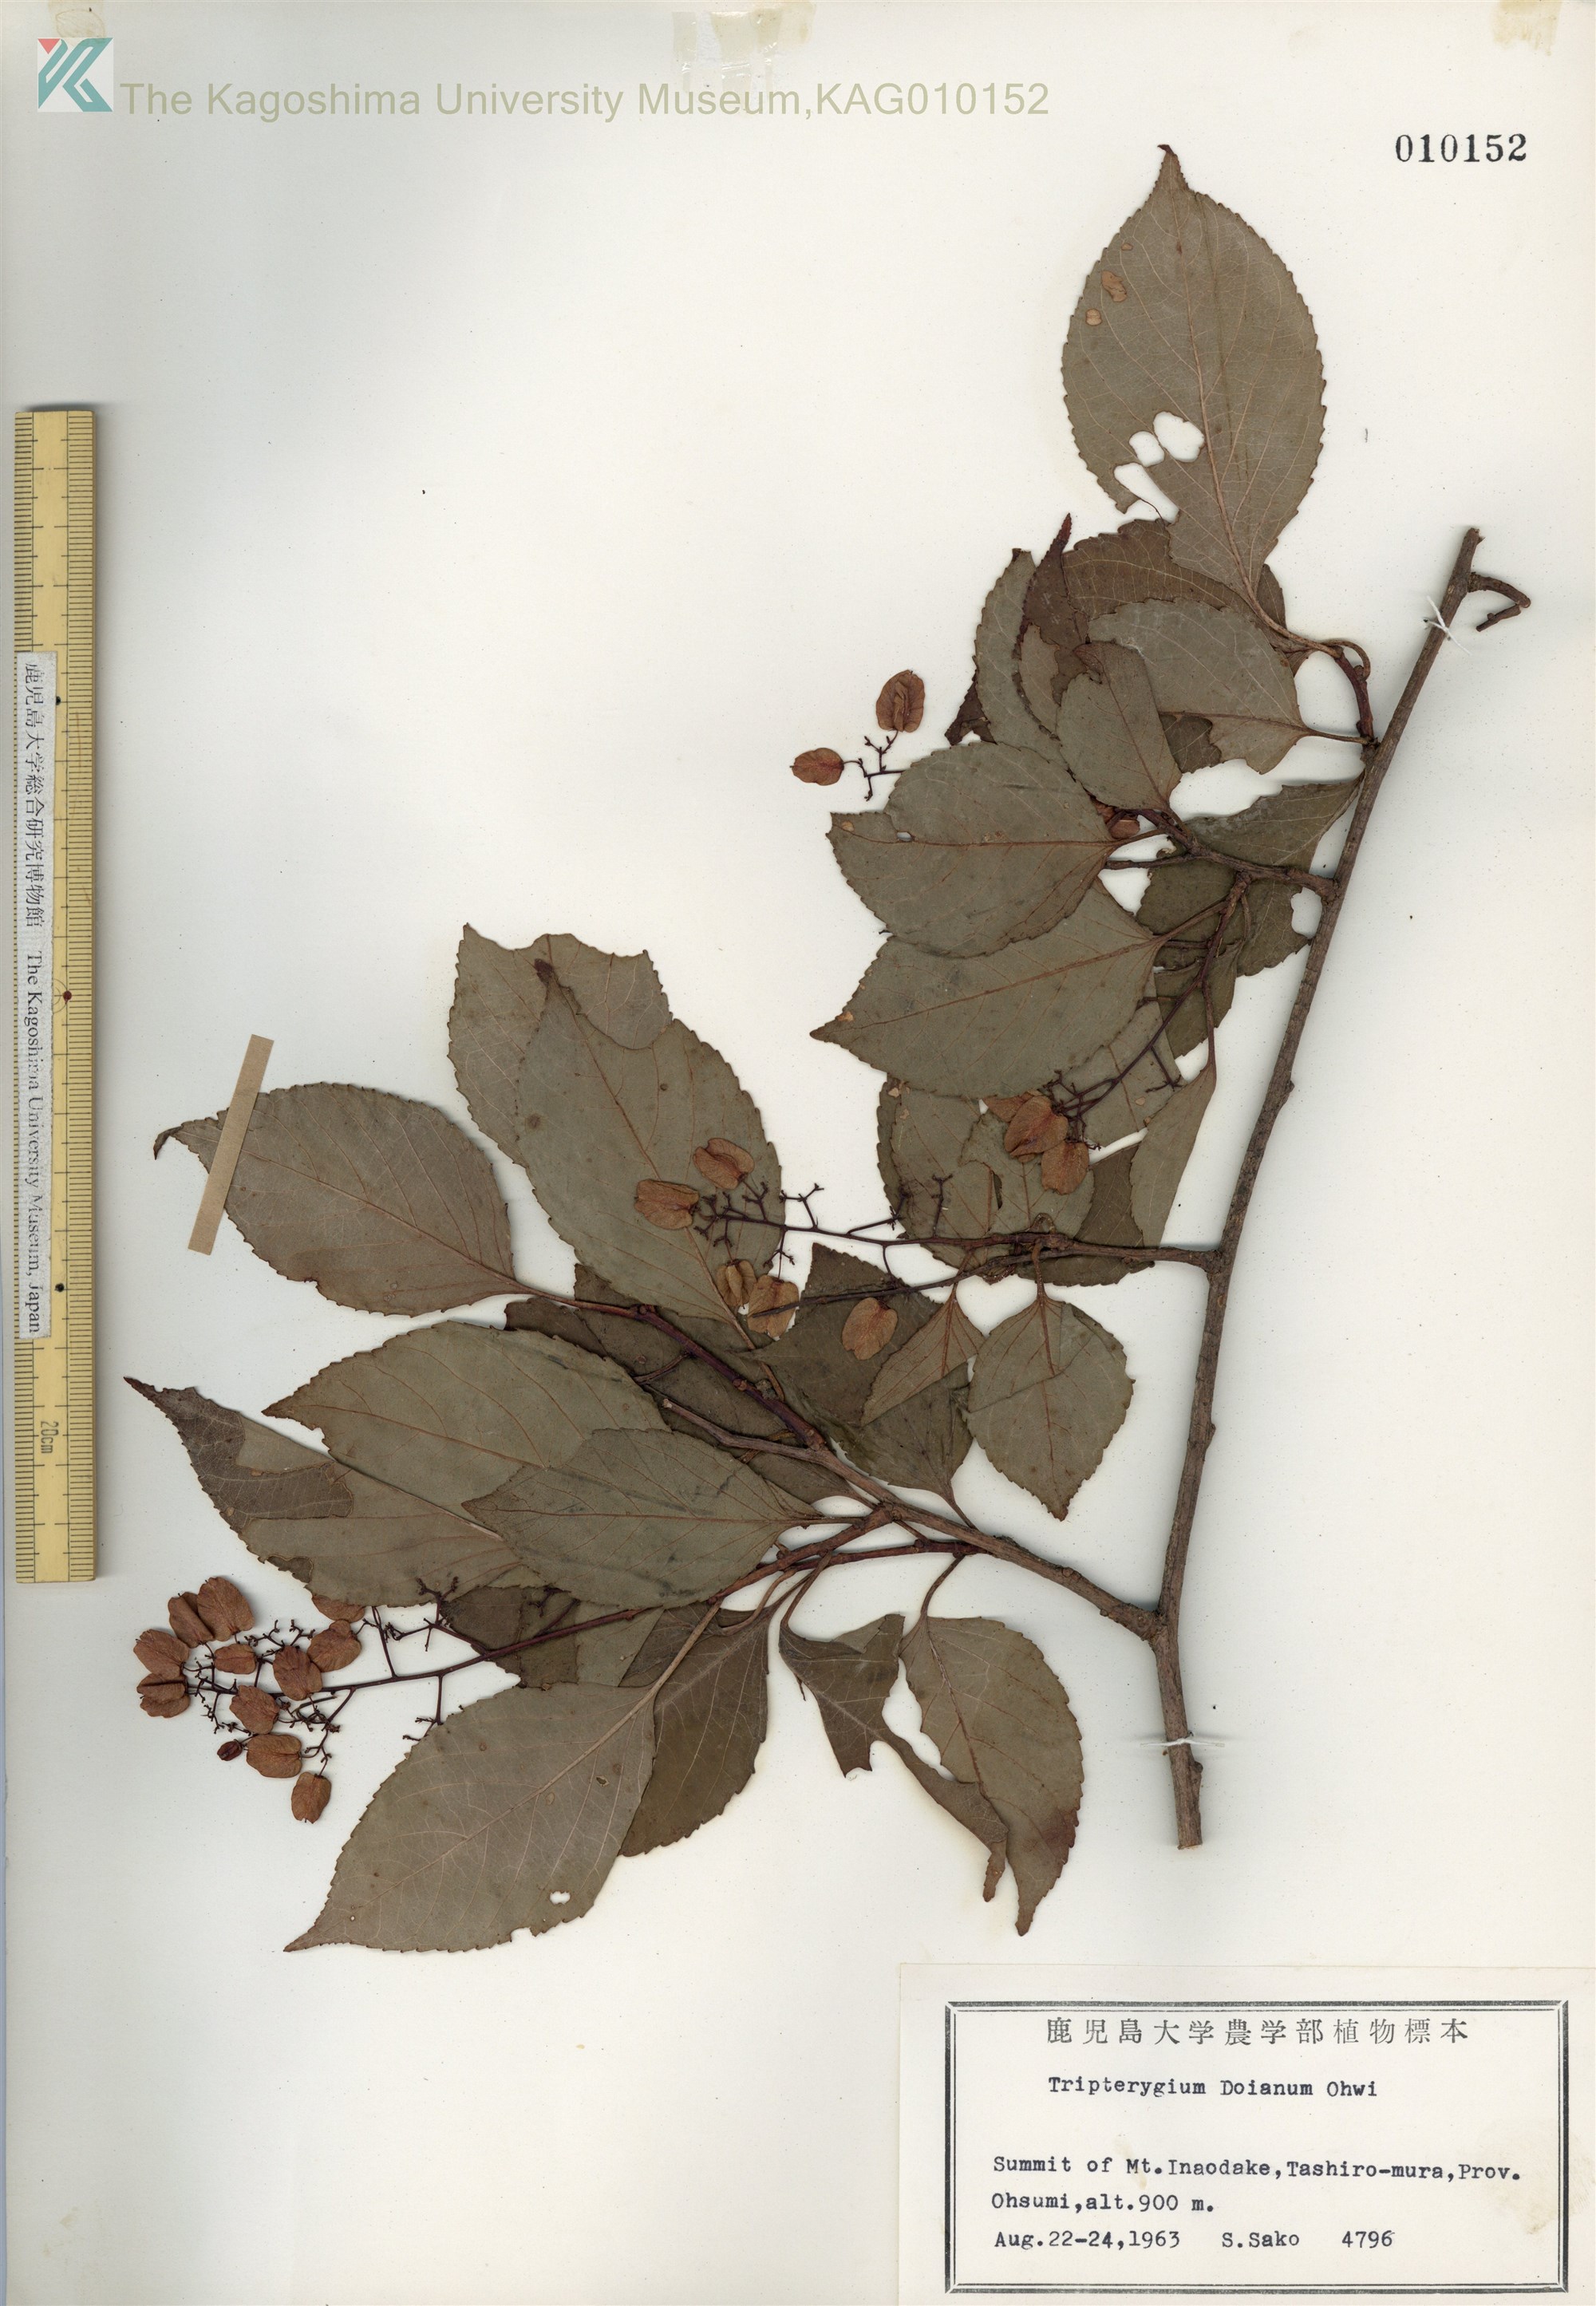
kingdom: Plantae
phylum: Tracheophyta
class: Magnoliopsida
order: Celastrales
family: Celastraceae
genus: Tripterygium
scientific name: Tripterygium doianum
